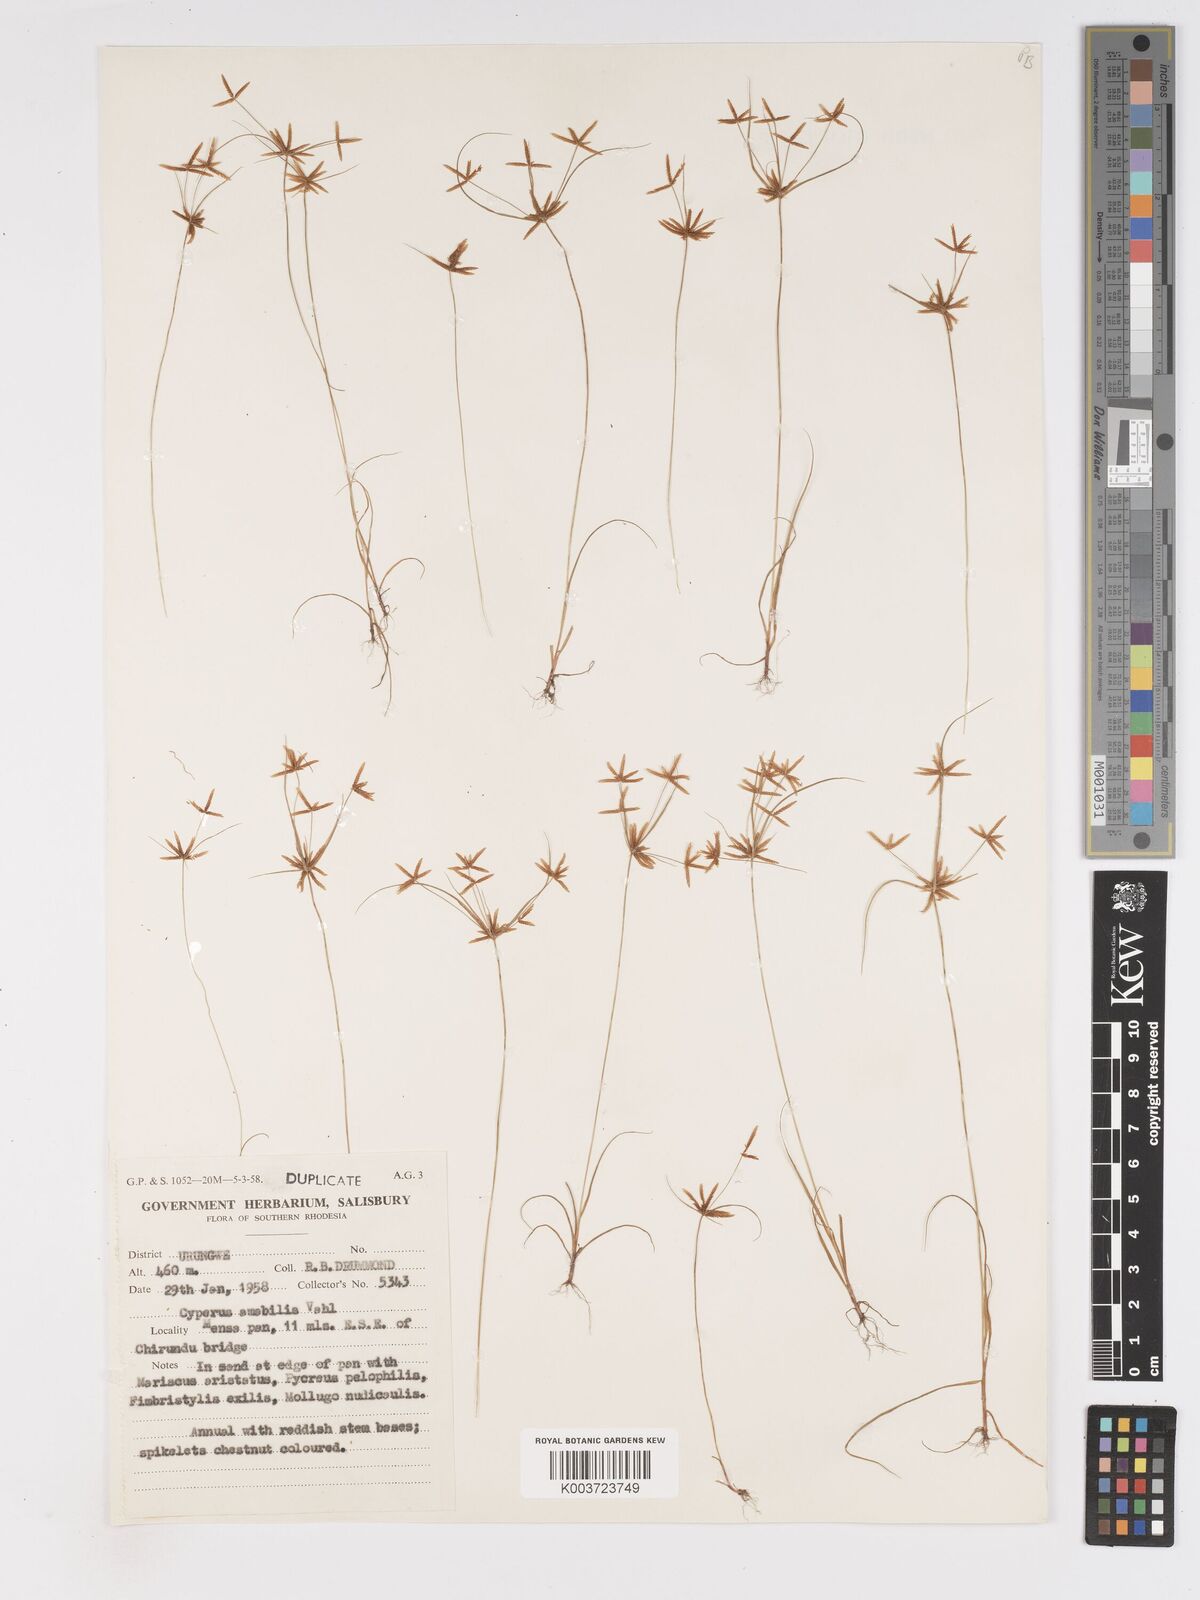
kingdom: Plantae
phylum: Tracheophyta
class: Liliopsida
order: Poales
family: Cyperaceae
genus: Cyperus
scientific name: Cyperus amabilis
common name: Foothill flat sedge
